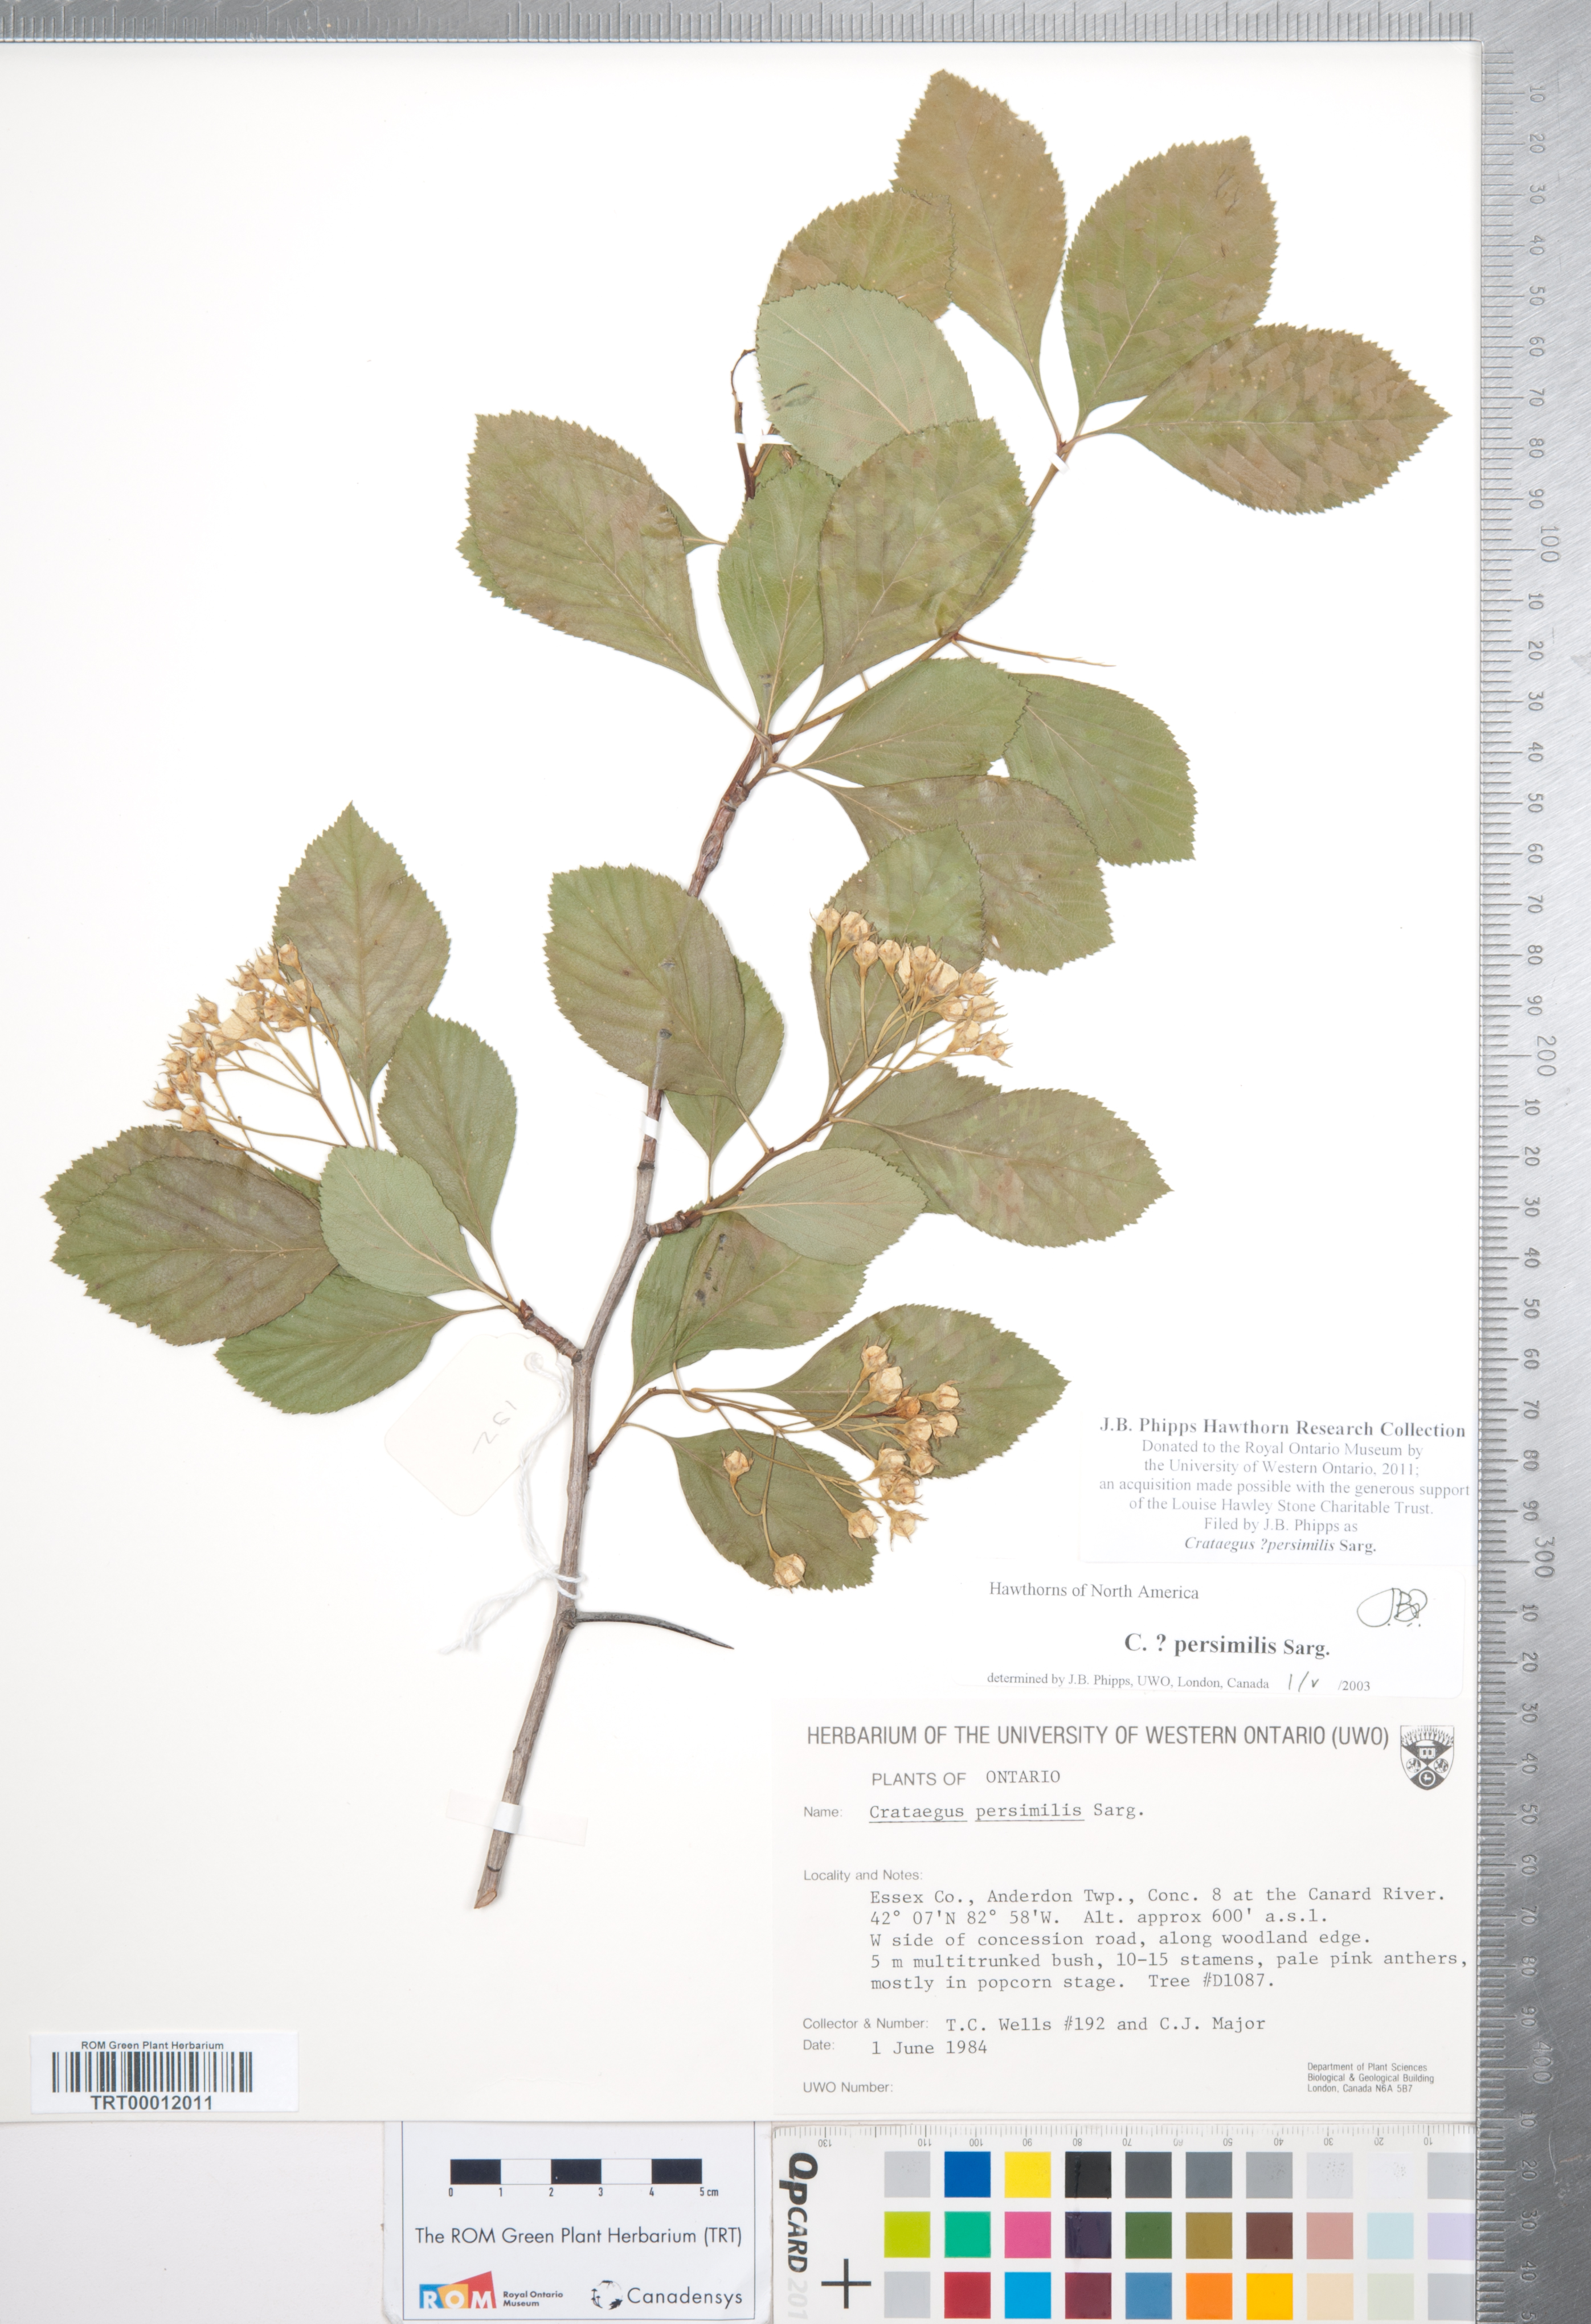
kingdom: Plantae
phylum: Tracheophyta
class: Magnoliopsida
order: Rosales
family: Rosaceae
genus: Crataegus
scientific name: Crataegus persimilis
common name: Broad-leaved cockspurthorn
